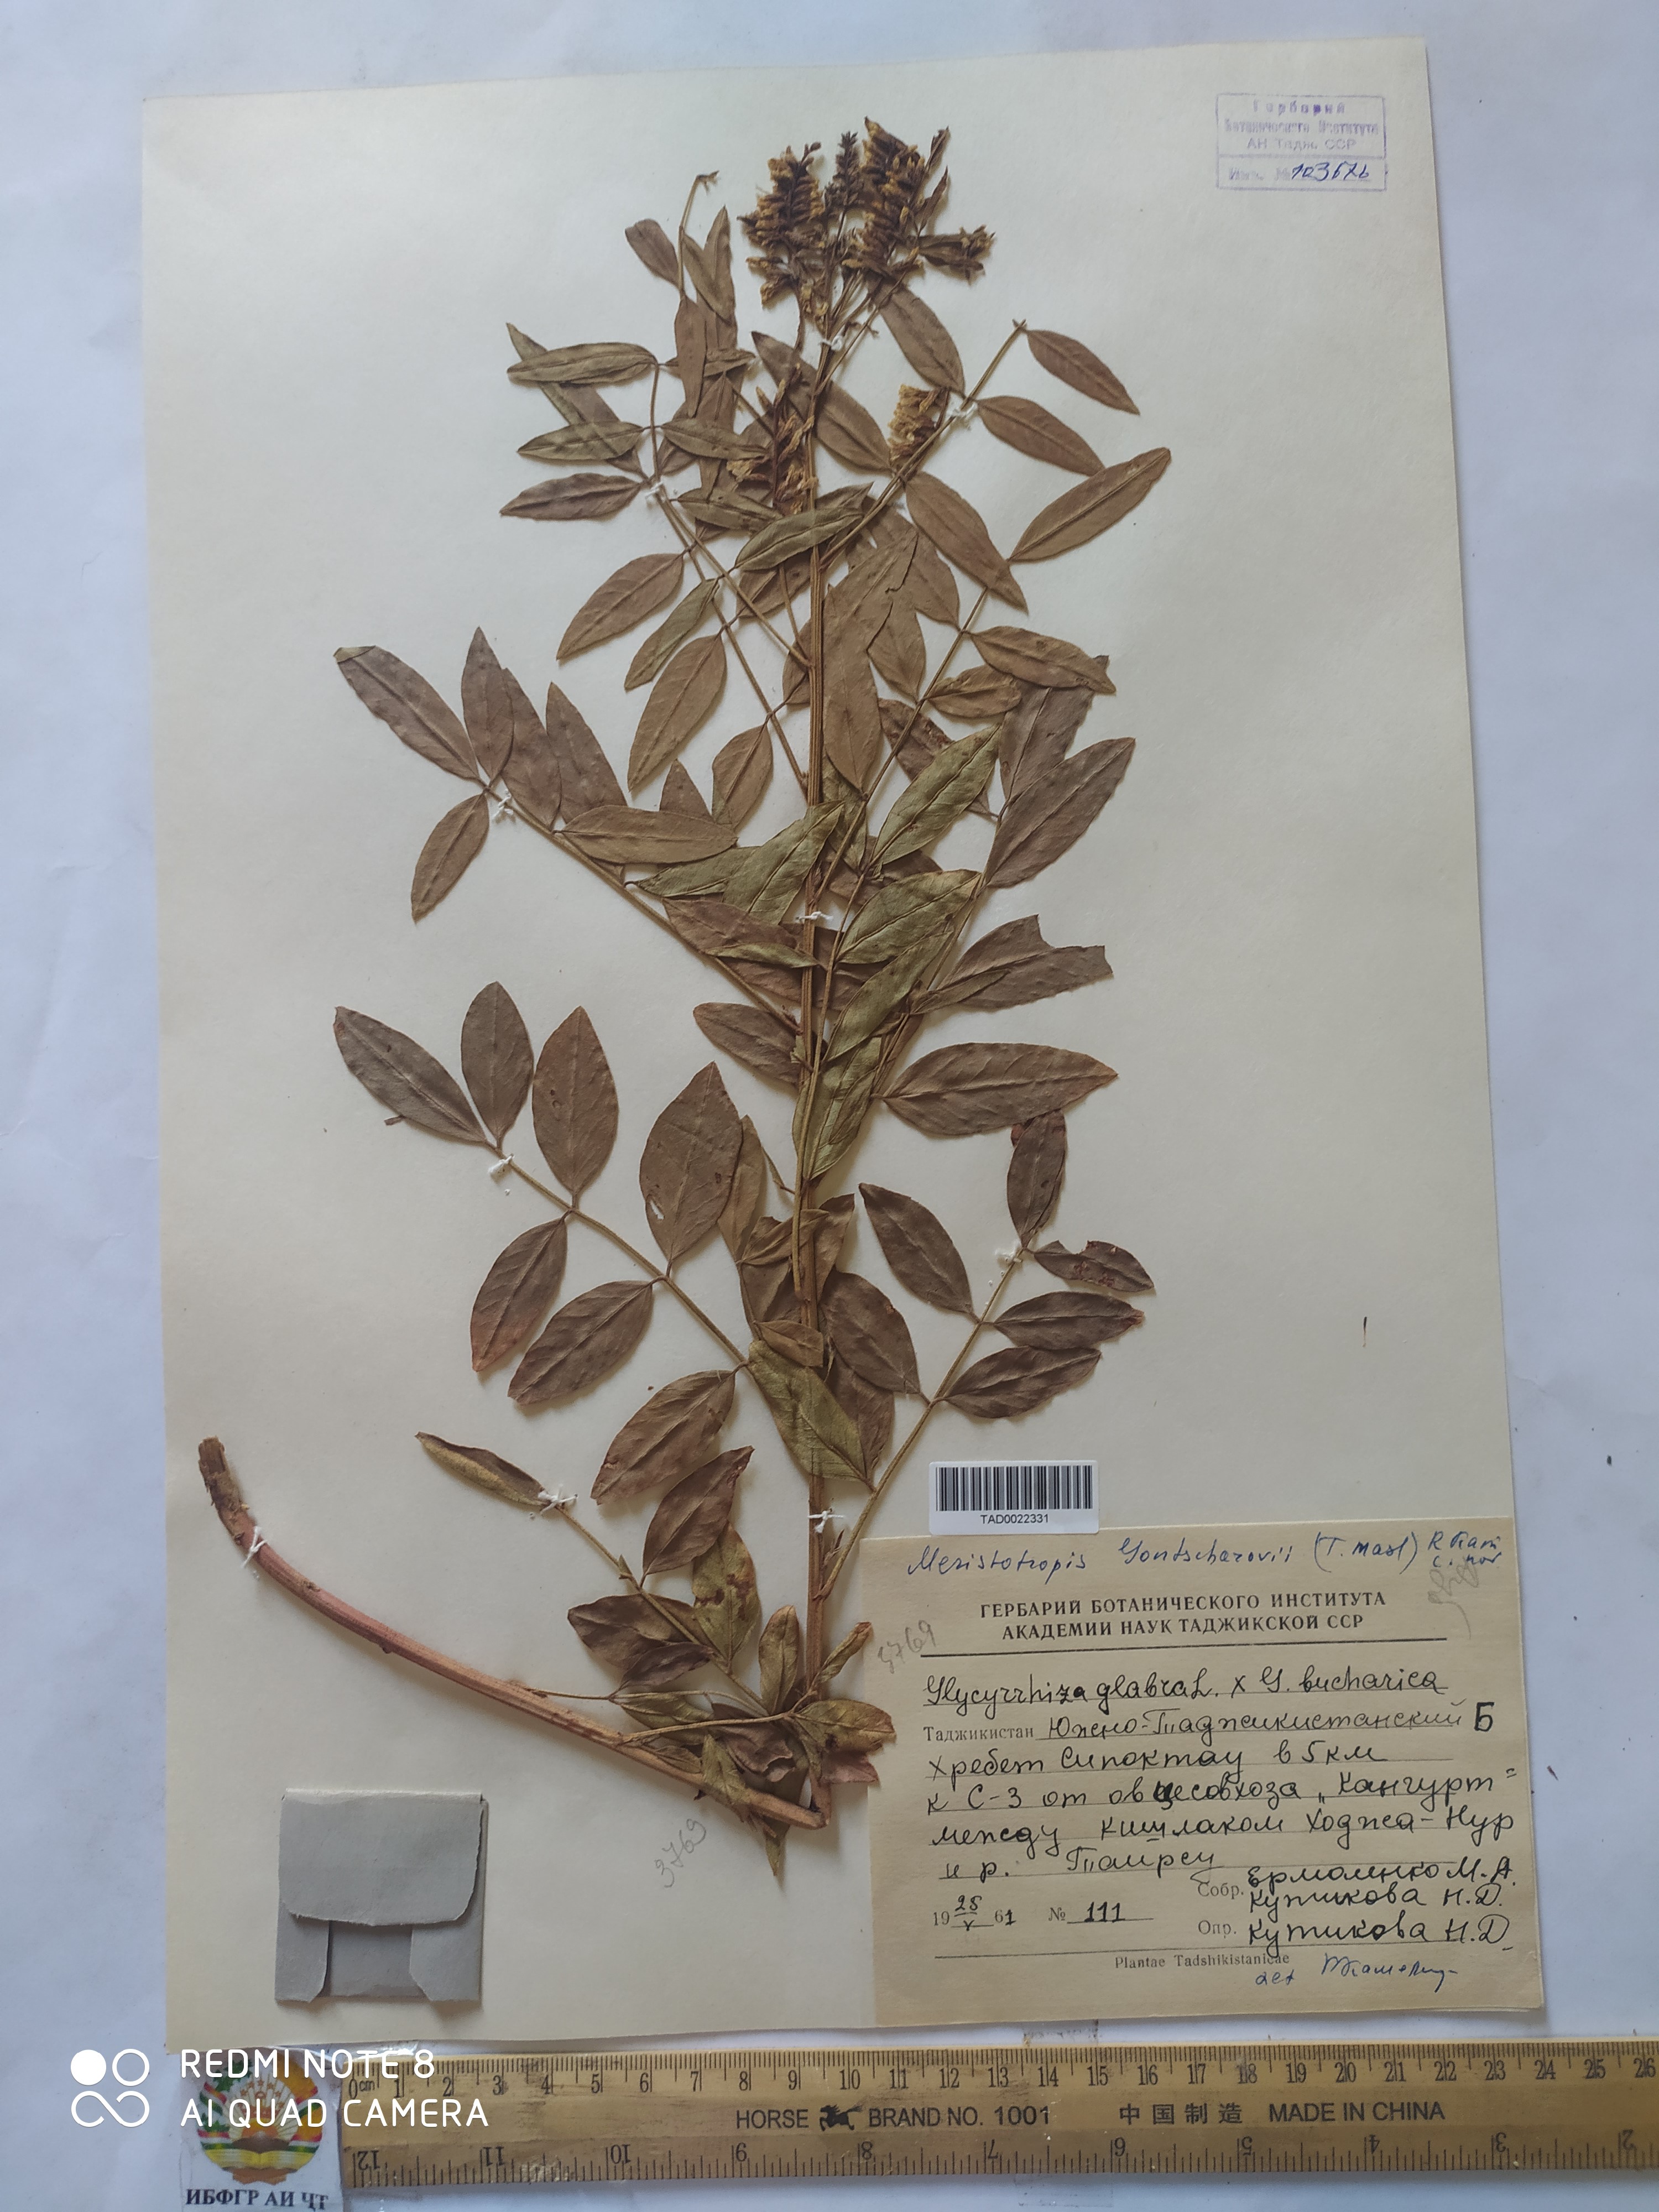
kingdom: Plantae
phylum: Tracheophyta
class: Magnoliopsida
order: Fabales
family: Fabaceae
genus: Glycyrrhiza
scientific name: Glycyrrhiza gontscharovii
